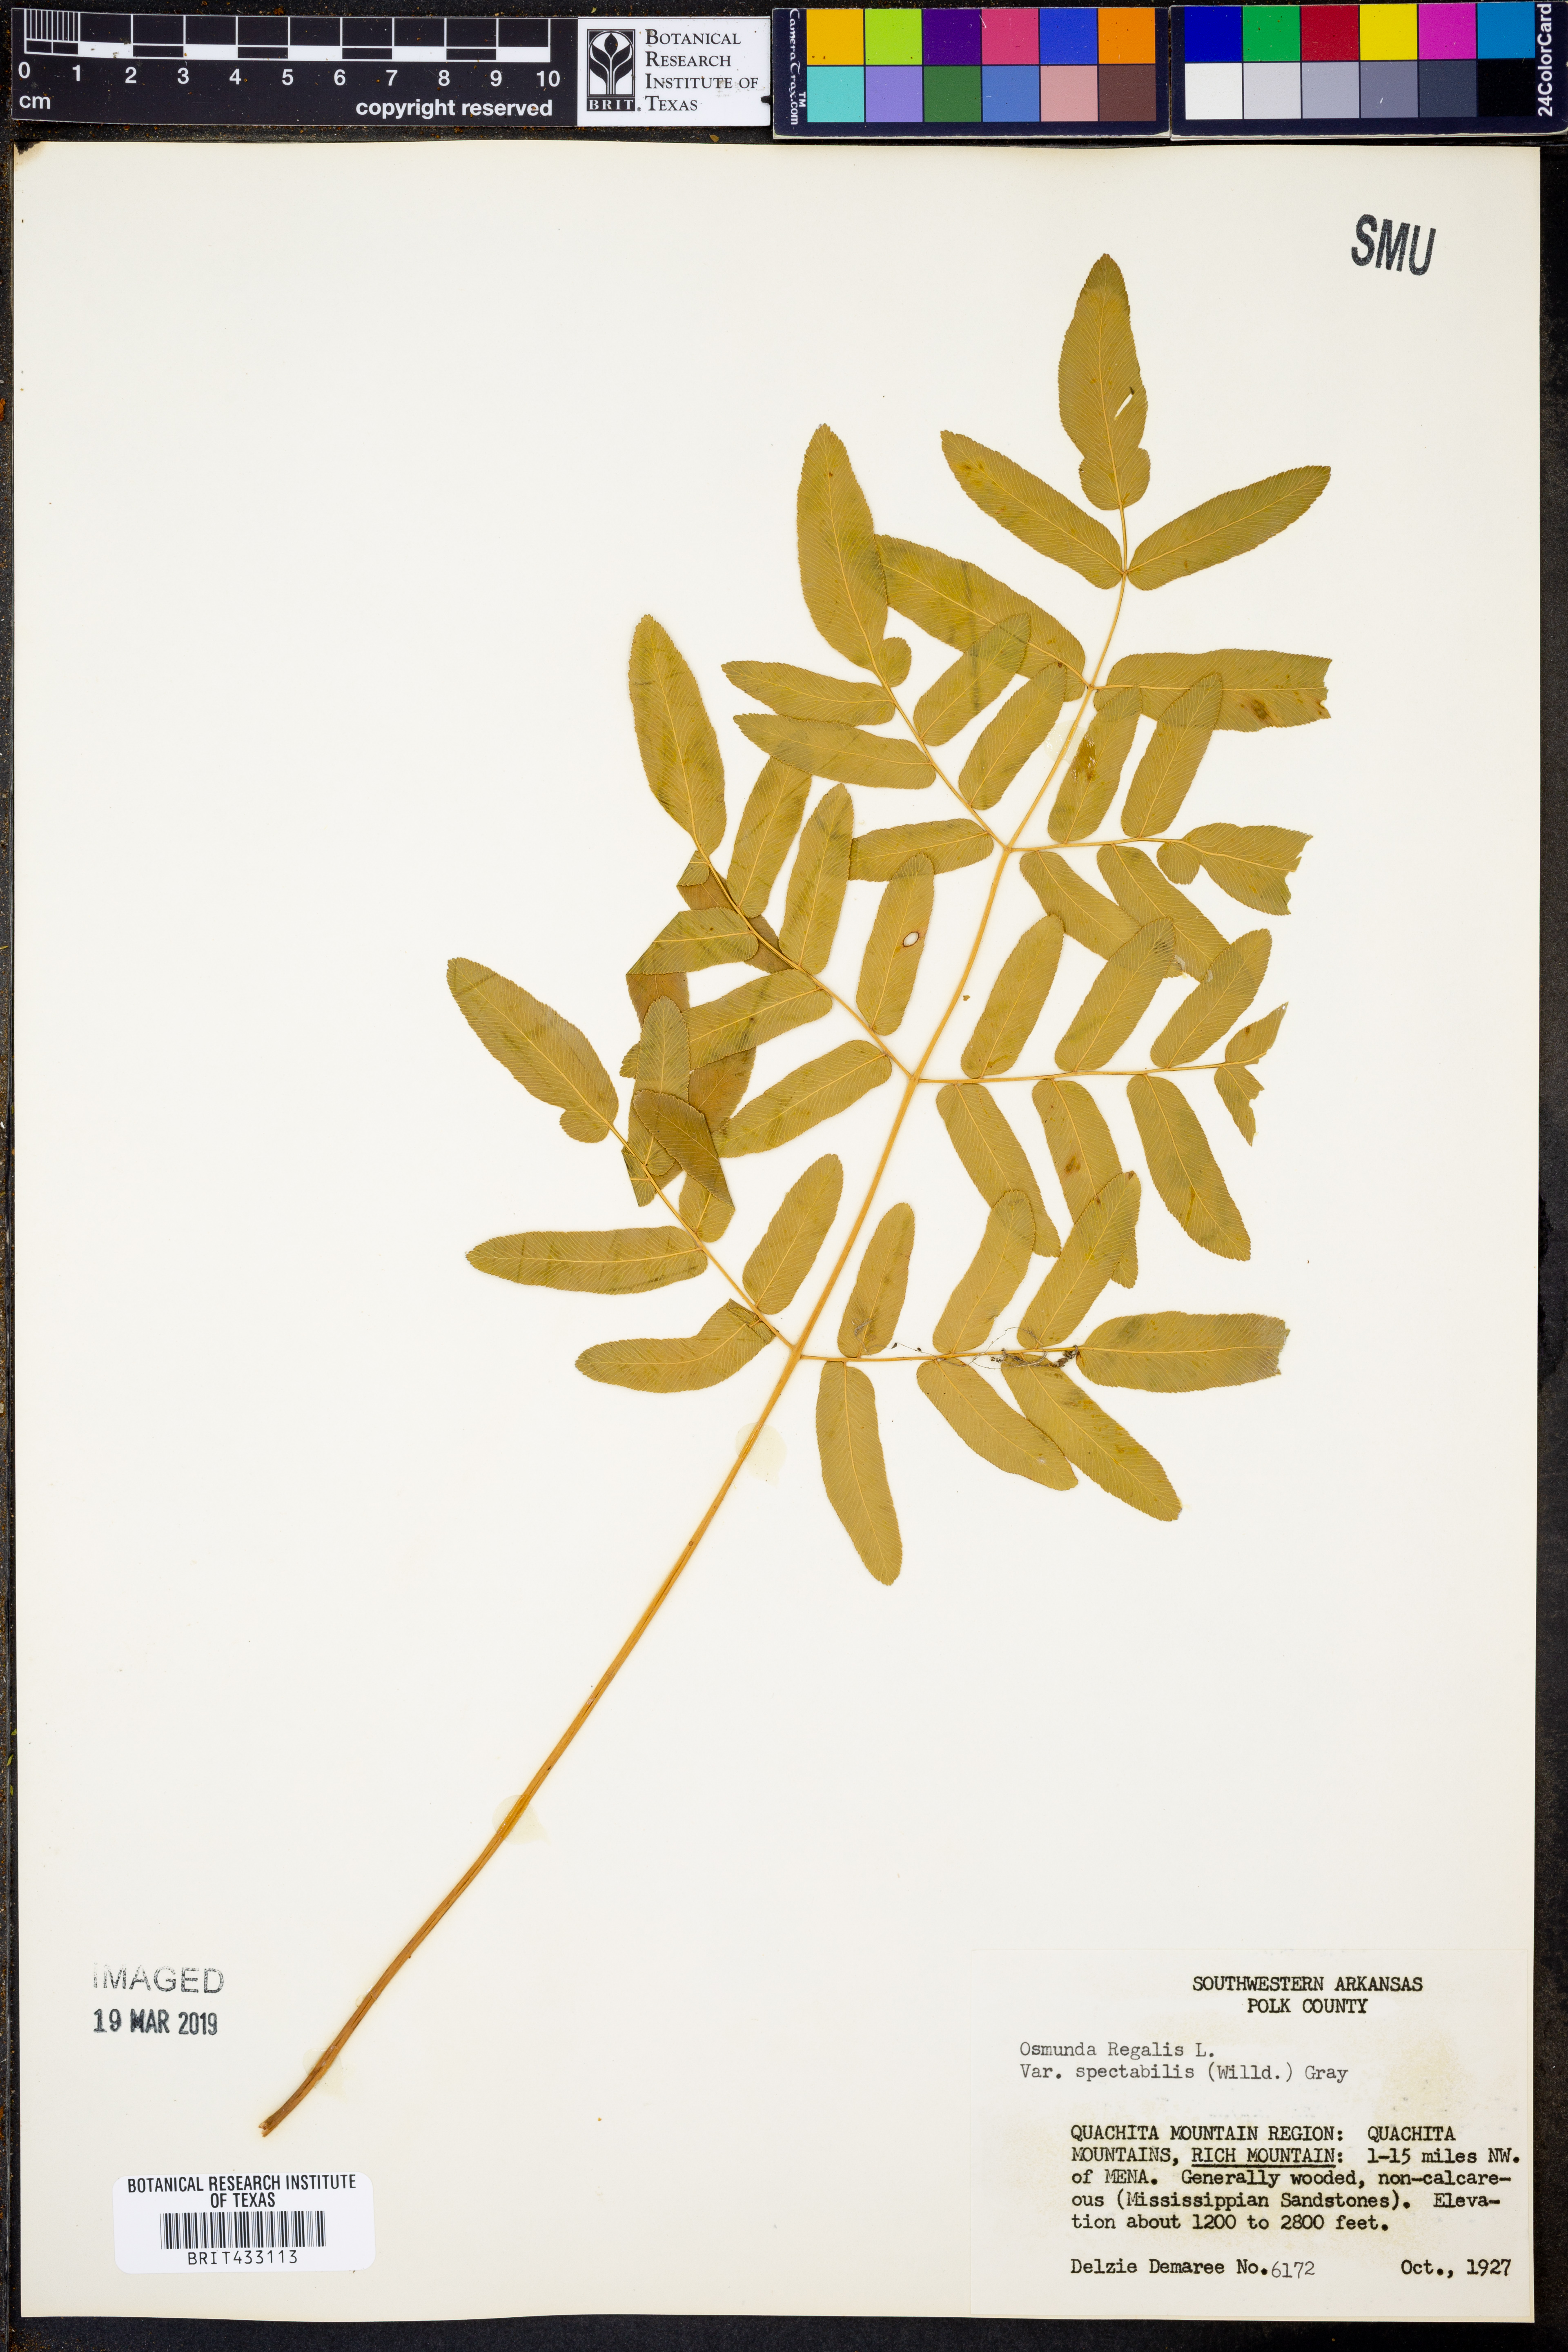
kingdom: Plantae
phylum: Tracheophyta
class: Polypodiopsida
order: Osmundales
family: Osmundaceae
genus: Osmunda
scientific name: Osmunda spectabilis
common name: American royal fern
